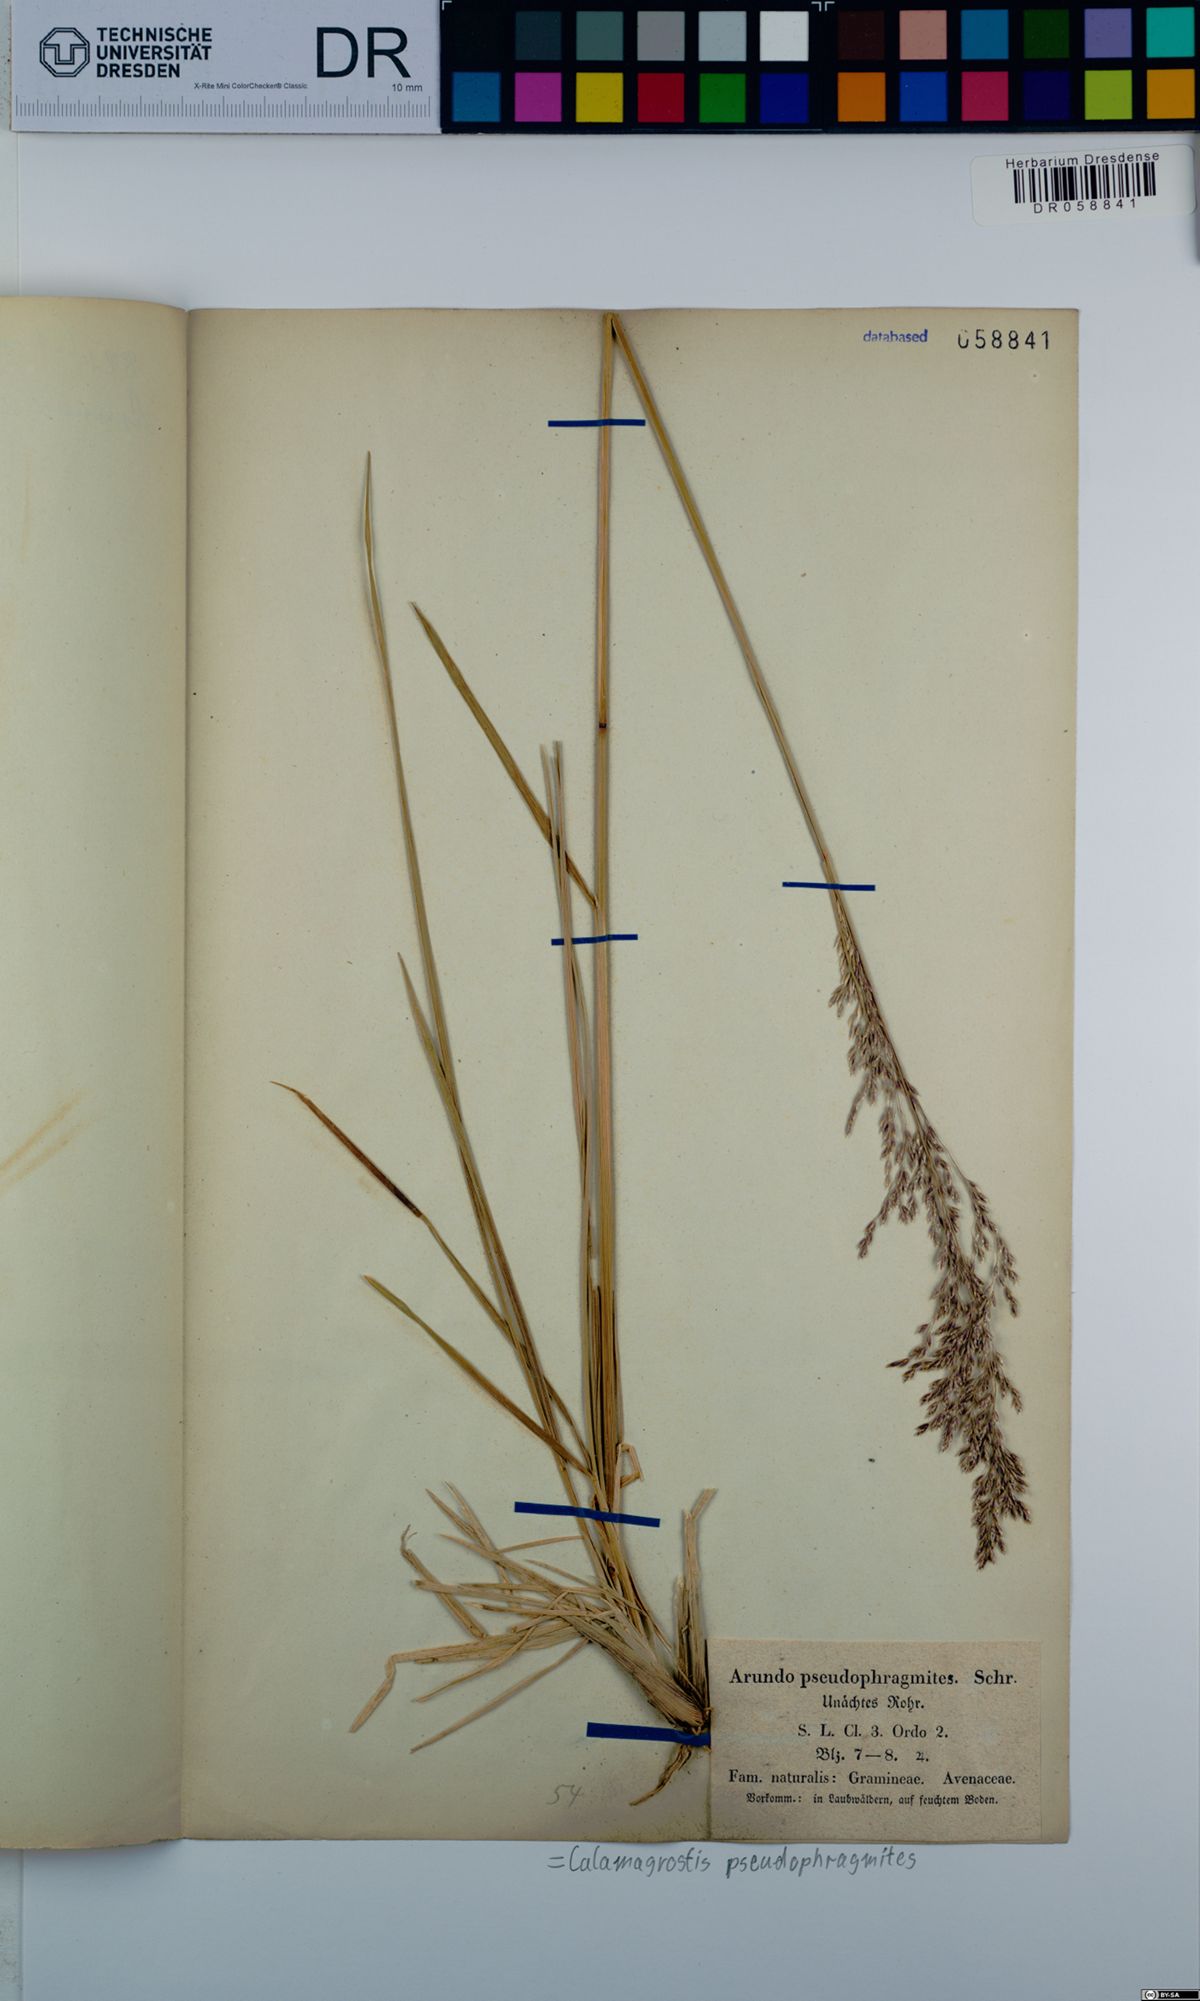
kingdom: Plantae
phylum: Tracheophyta
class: Liliopsida
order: Poales
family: Poaceae
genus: Calamagrostis
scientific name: Calamagrostis pseudophragmites
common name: Coastal small-reed
